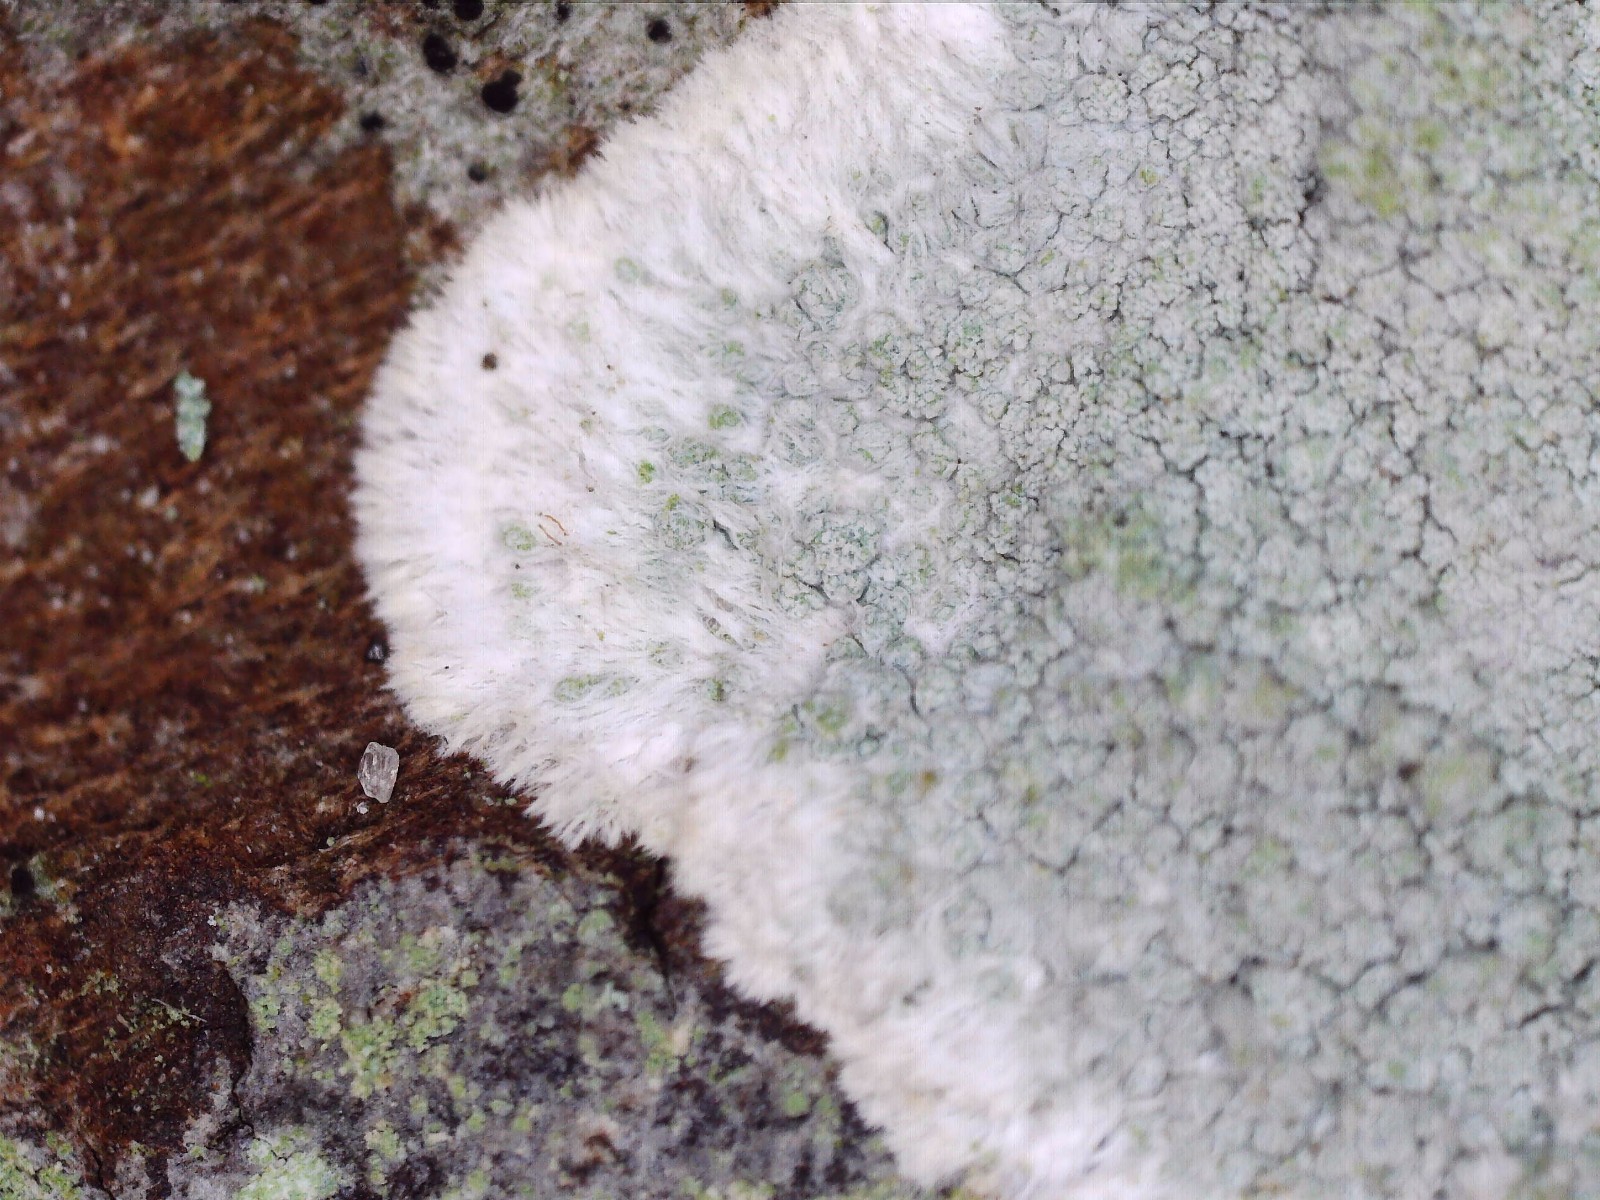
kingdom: Fungi
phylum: Ascomycota
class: Lecanoromycetes
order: Lecanorales
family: Haematommataceae
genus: Haematomma
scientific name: Haematomma ochroleucum
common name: gul trådkantlav
